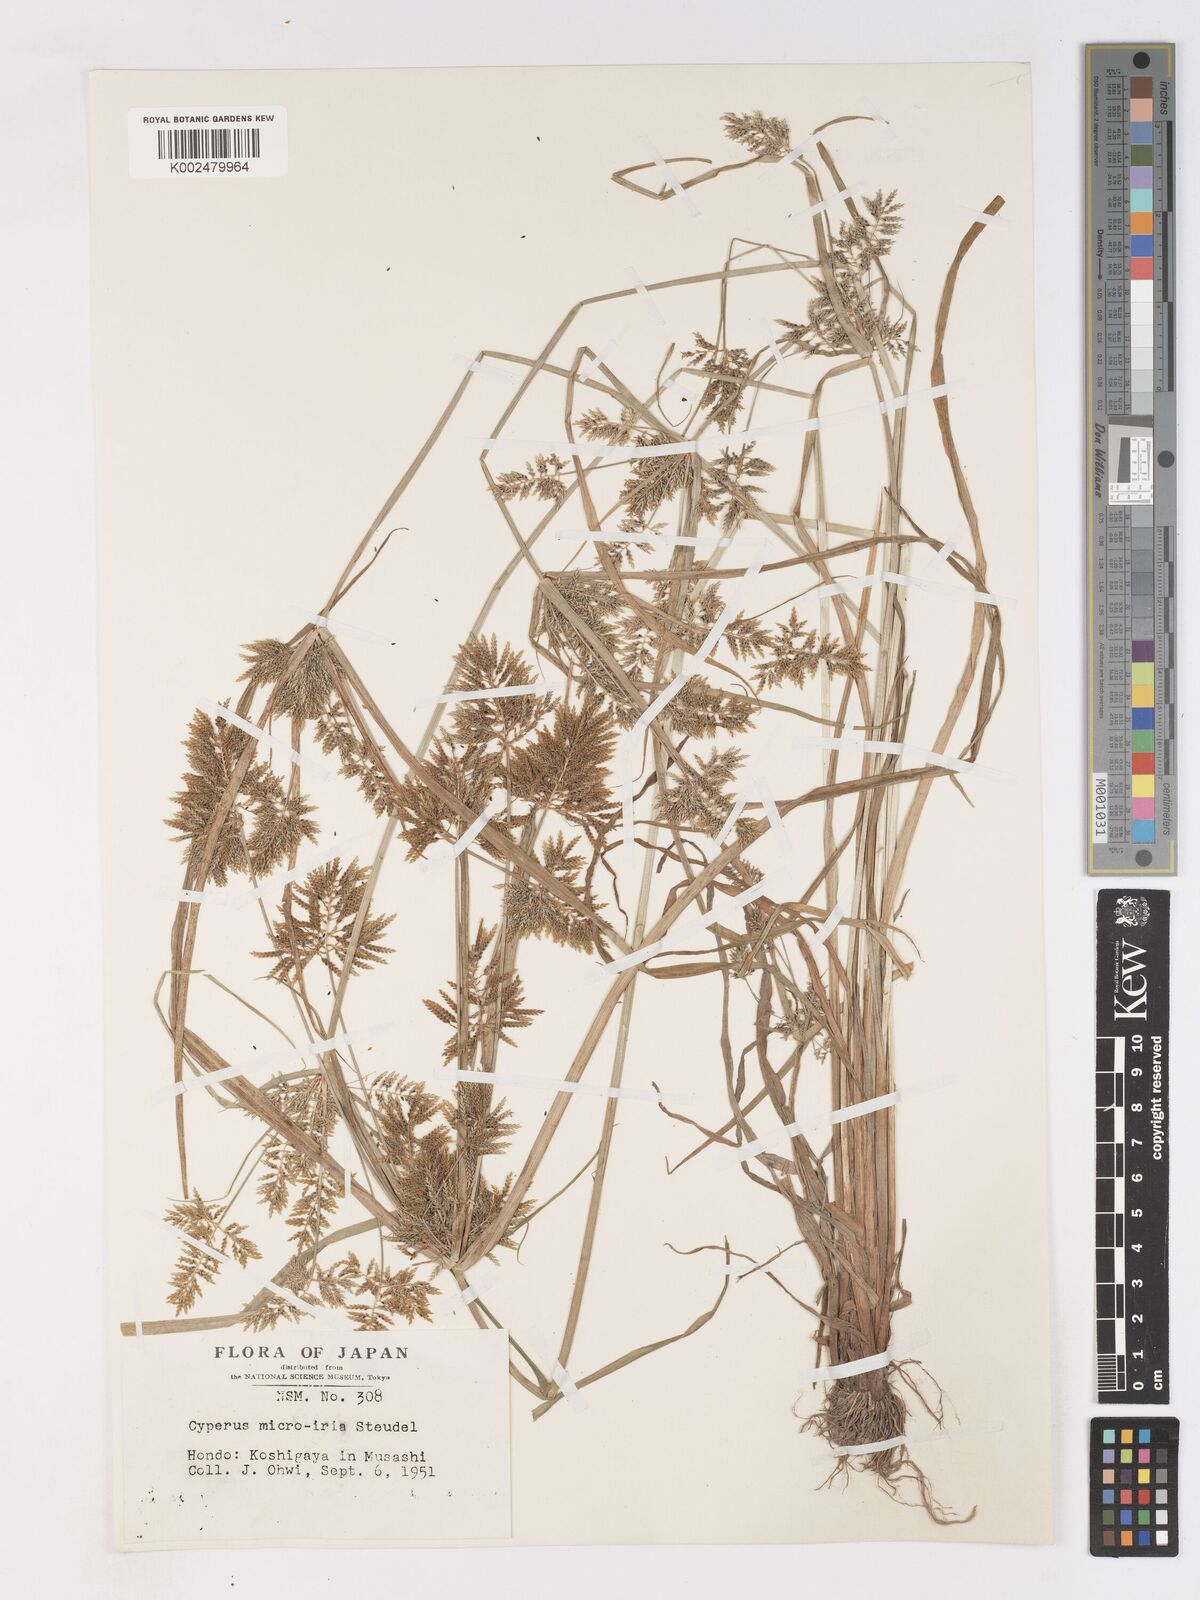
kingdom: Plantae
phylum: Tracheophyta
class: Liliopsida
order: Poales
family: Cyperaceae
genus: Cyperus
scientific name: Cyperus microiria
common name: Asian flatsedge
